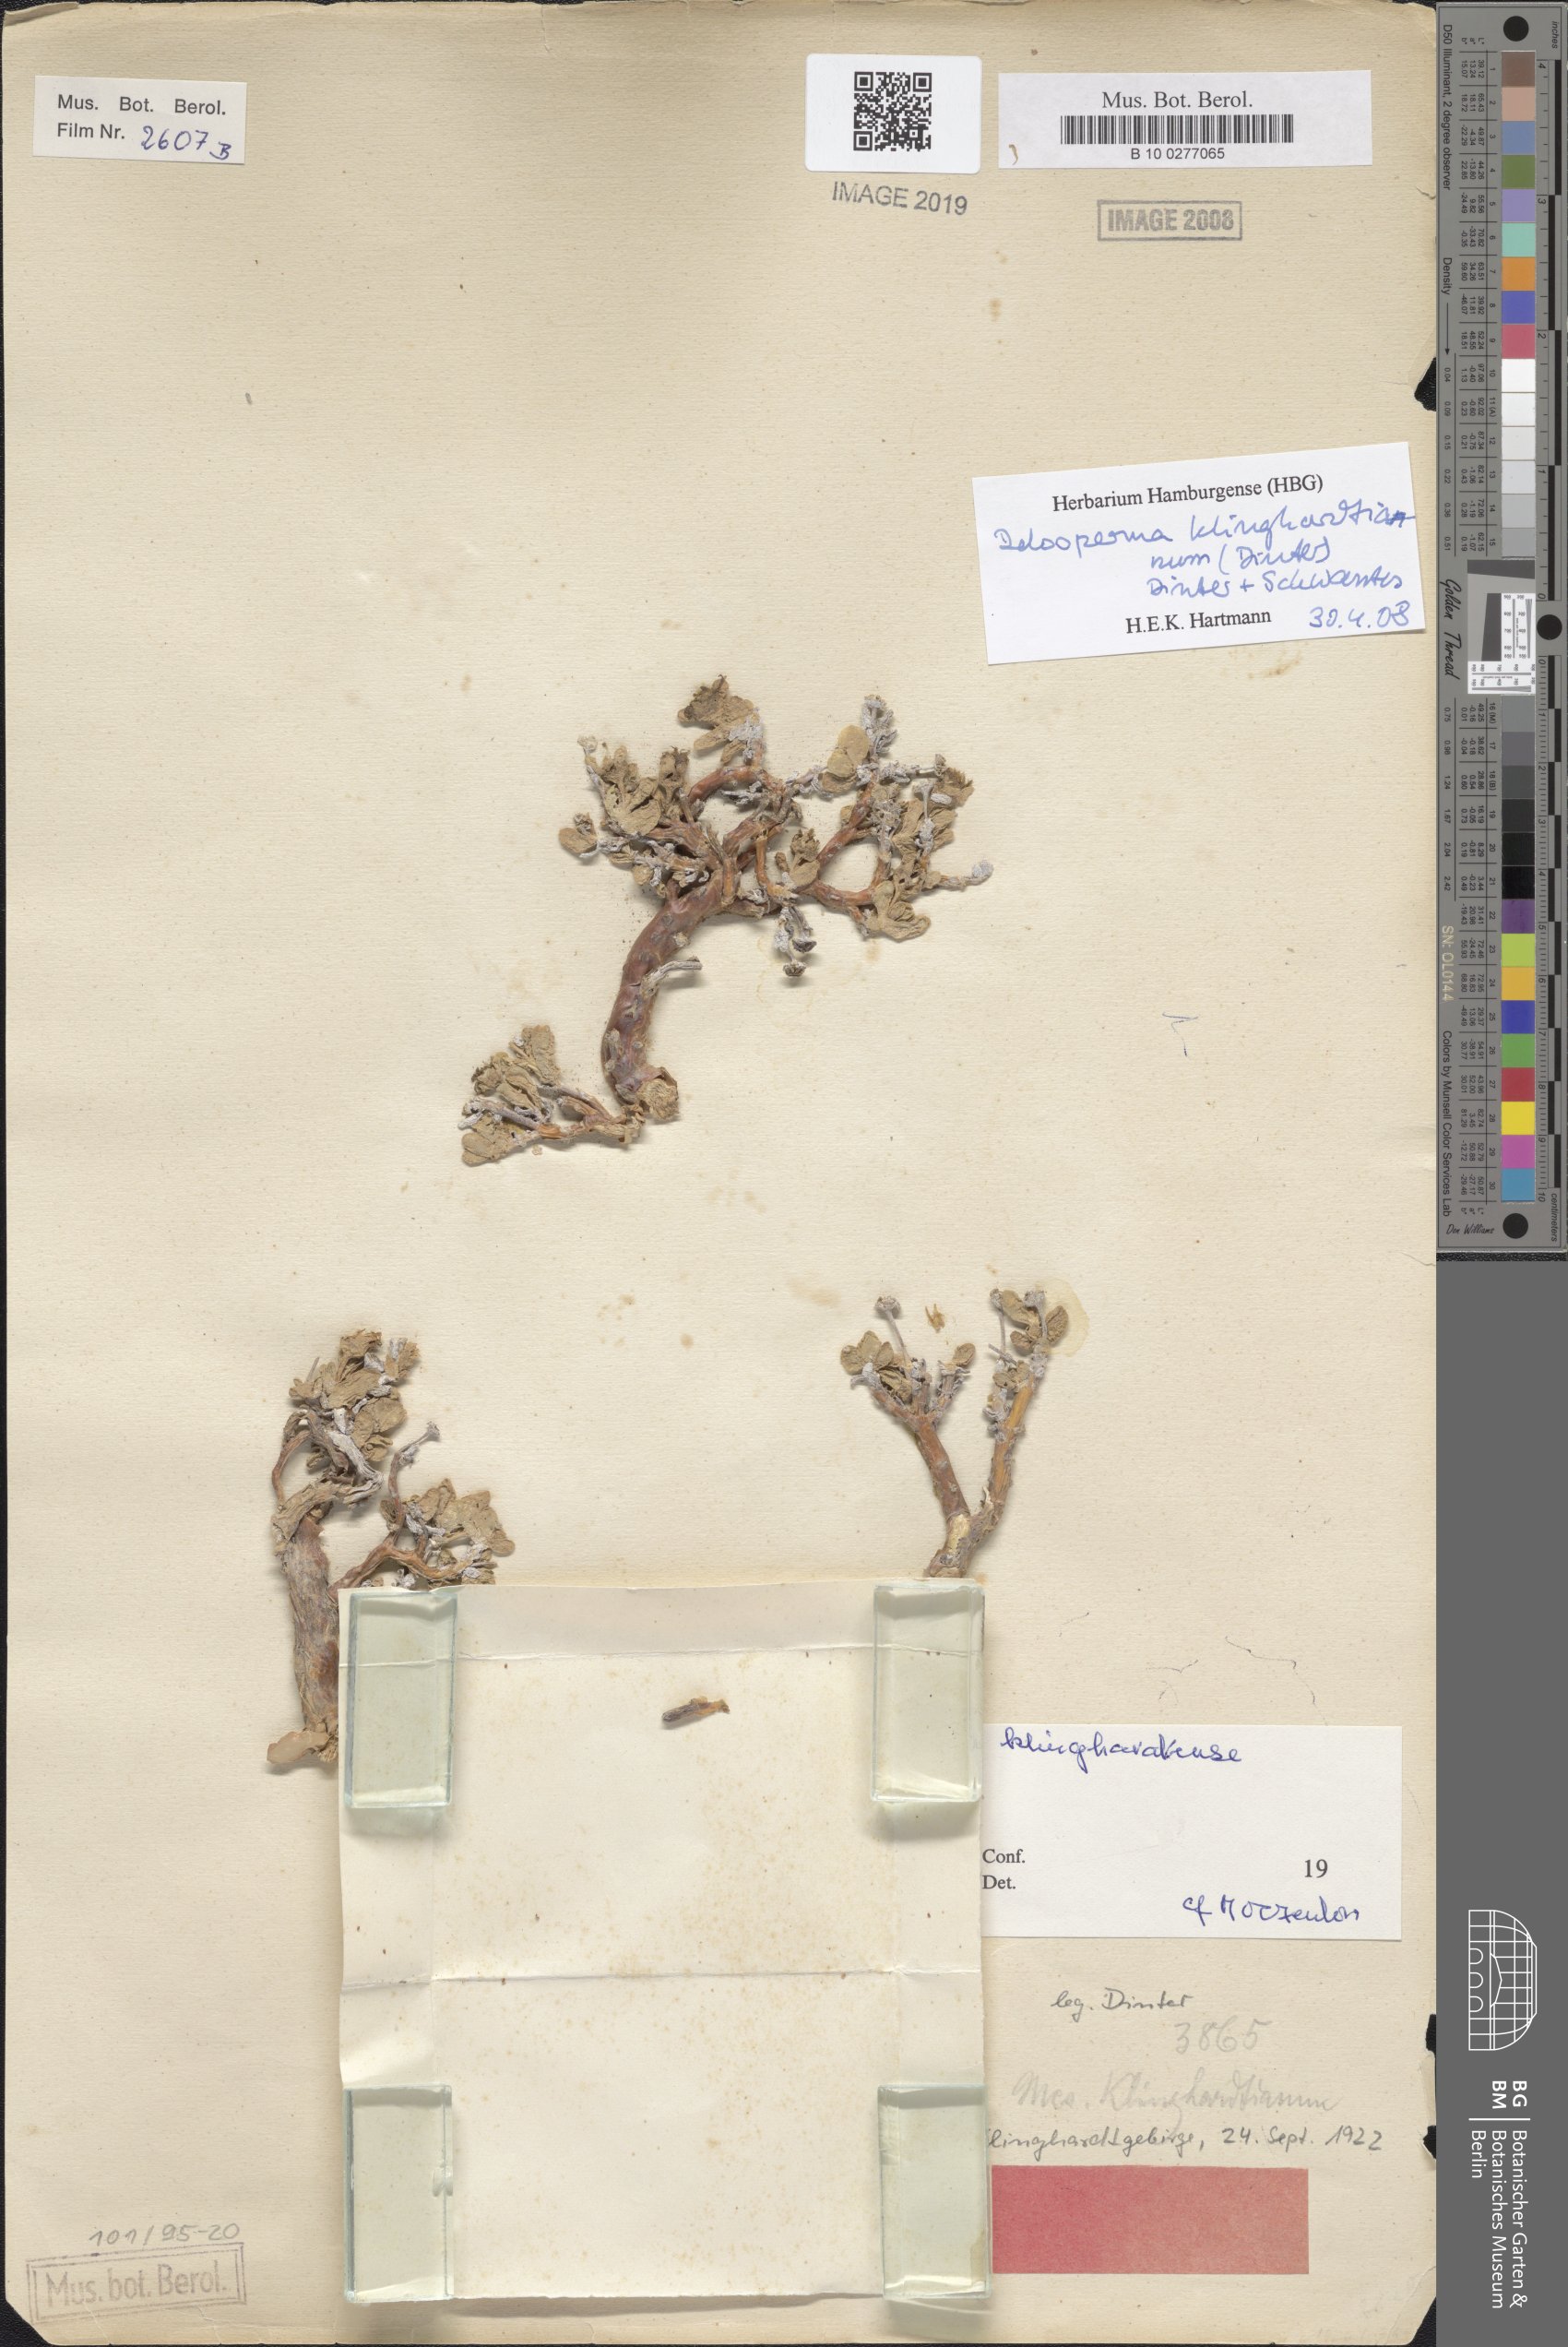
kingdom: Plantae
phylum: Tracheophyta
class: Magnoliopsida
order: Caryophyllales
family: Aizoaceae
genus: Delosperma
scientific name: Delosperma klinghardtianum
